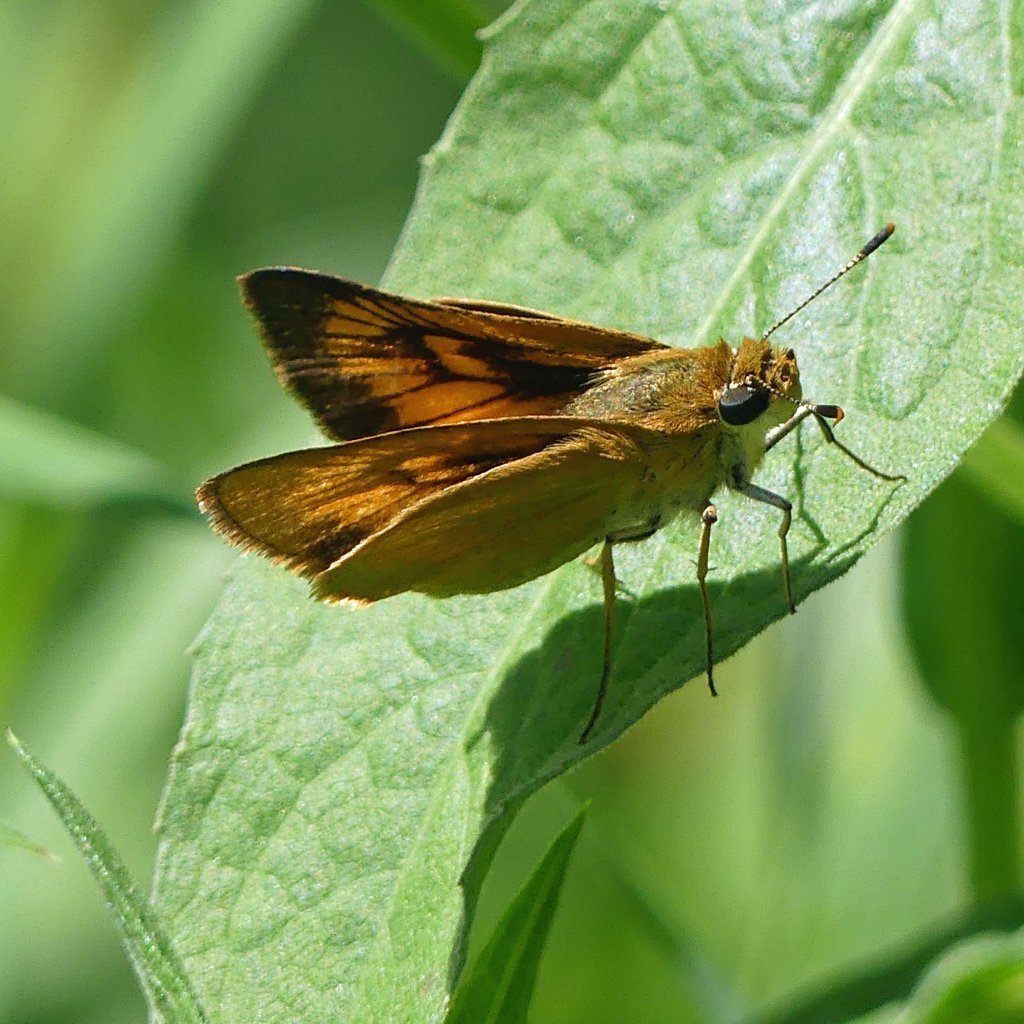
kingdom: Animalia
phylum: Arthropoda
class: Insecta
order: Lepidoptera
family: Hesperiidae
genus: Atrytone
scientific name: Atrytone delaware
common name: Delaware Skipper
